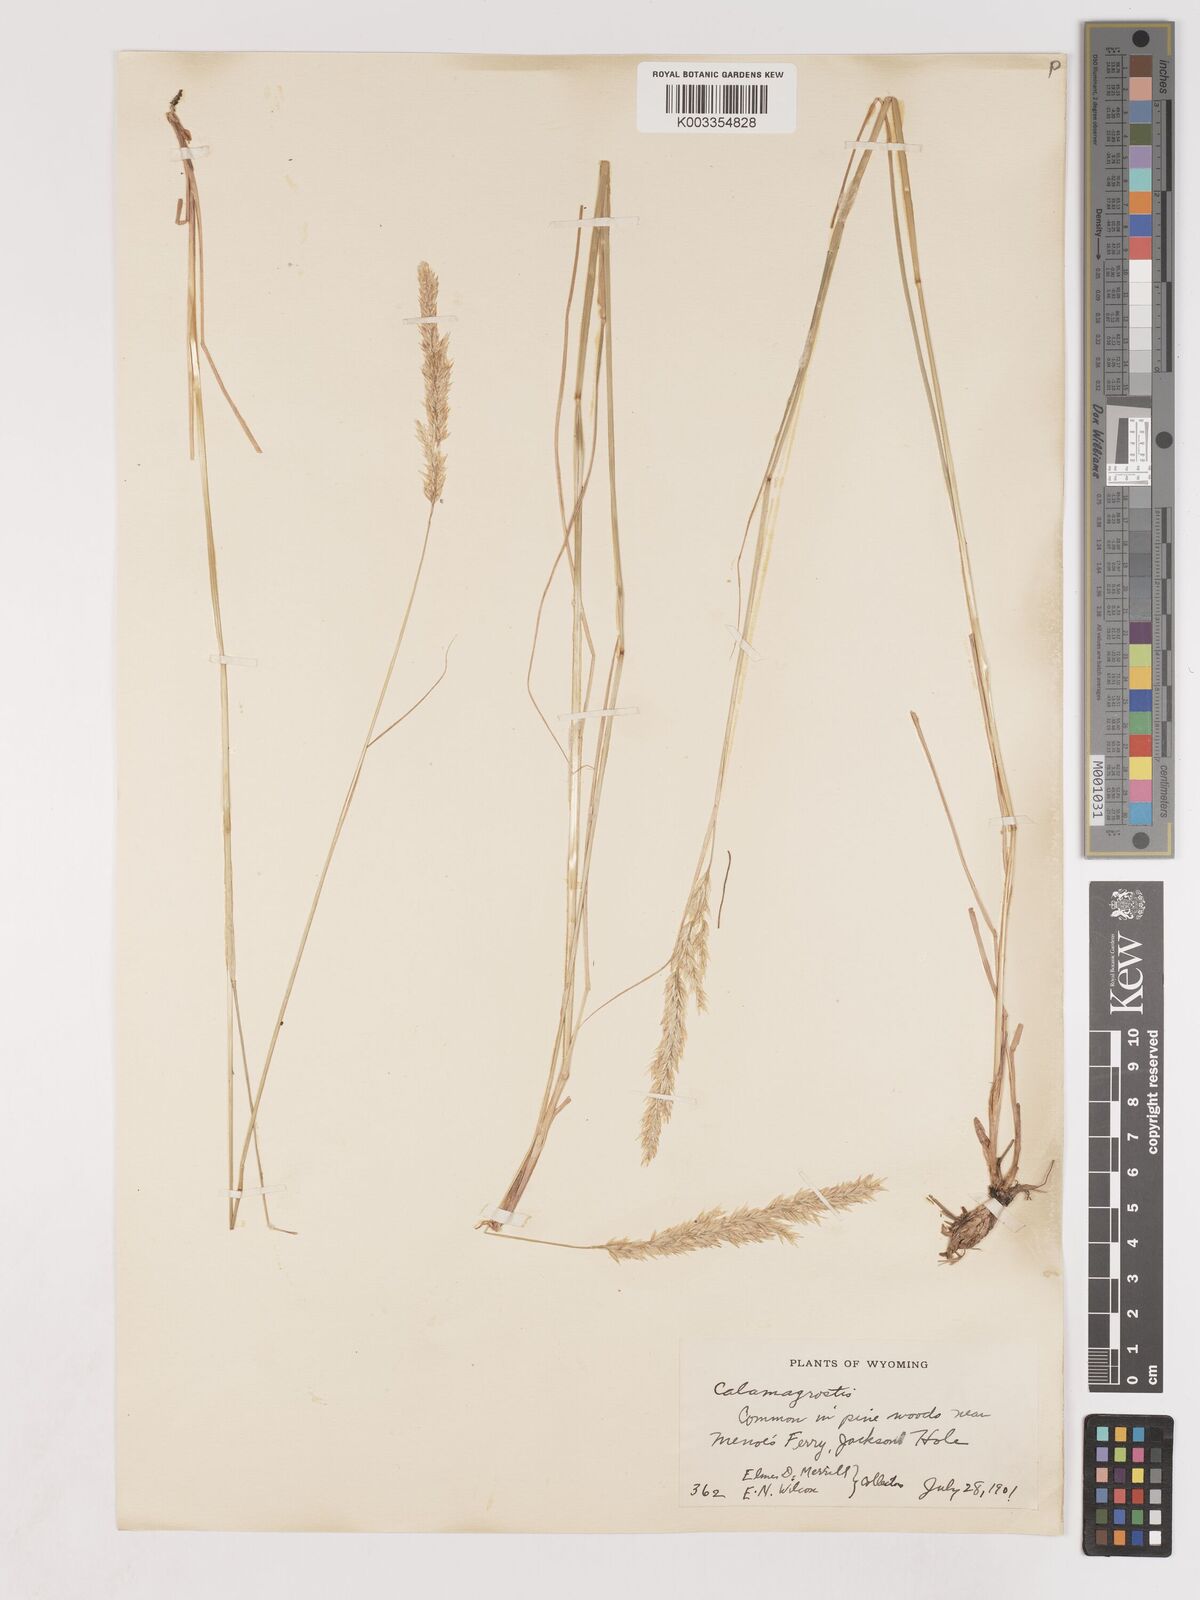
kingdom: Plantae
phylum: Tracheophyta
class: Liliopsida
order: Poales
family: Poaceae
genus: Calamagrostis
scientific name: Calamagrostis
